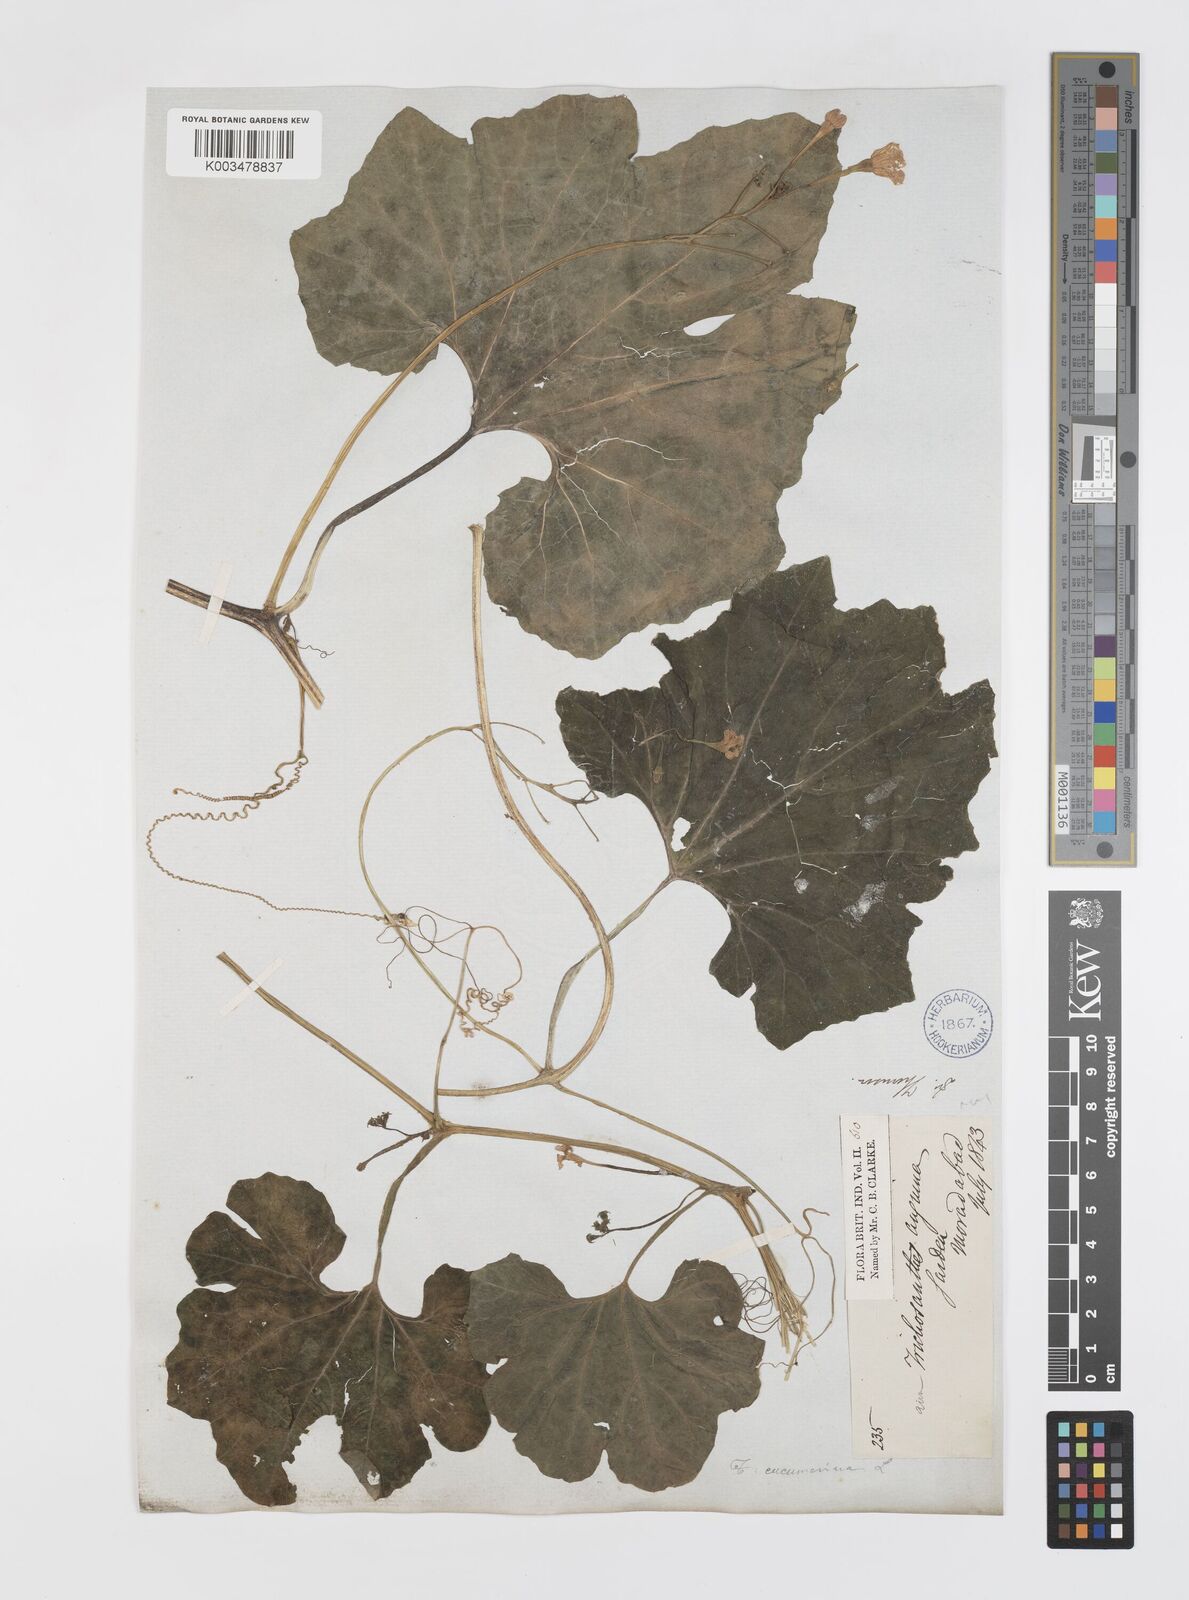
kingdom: Plantae
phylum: Tracheophyta
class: Magnoliopsida
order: Cucurbitales
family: Cucurbitaceae
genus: Trichosanthes
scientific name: Trichosanthes cucumerina
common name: Snakegourd
